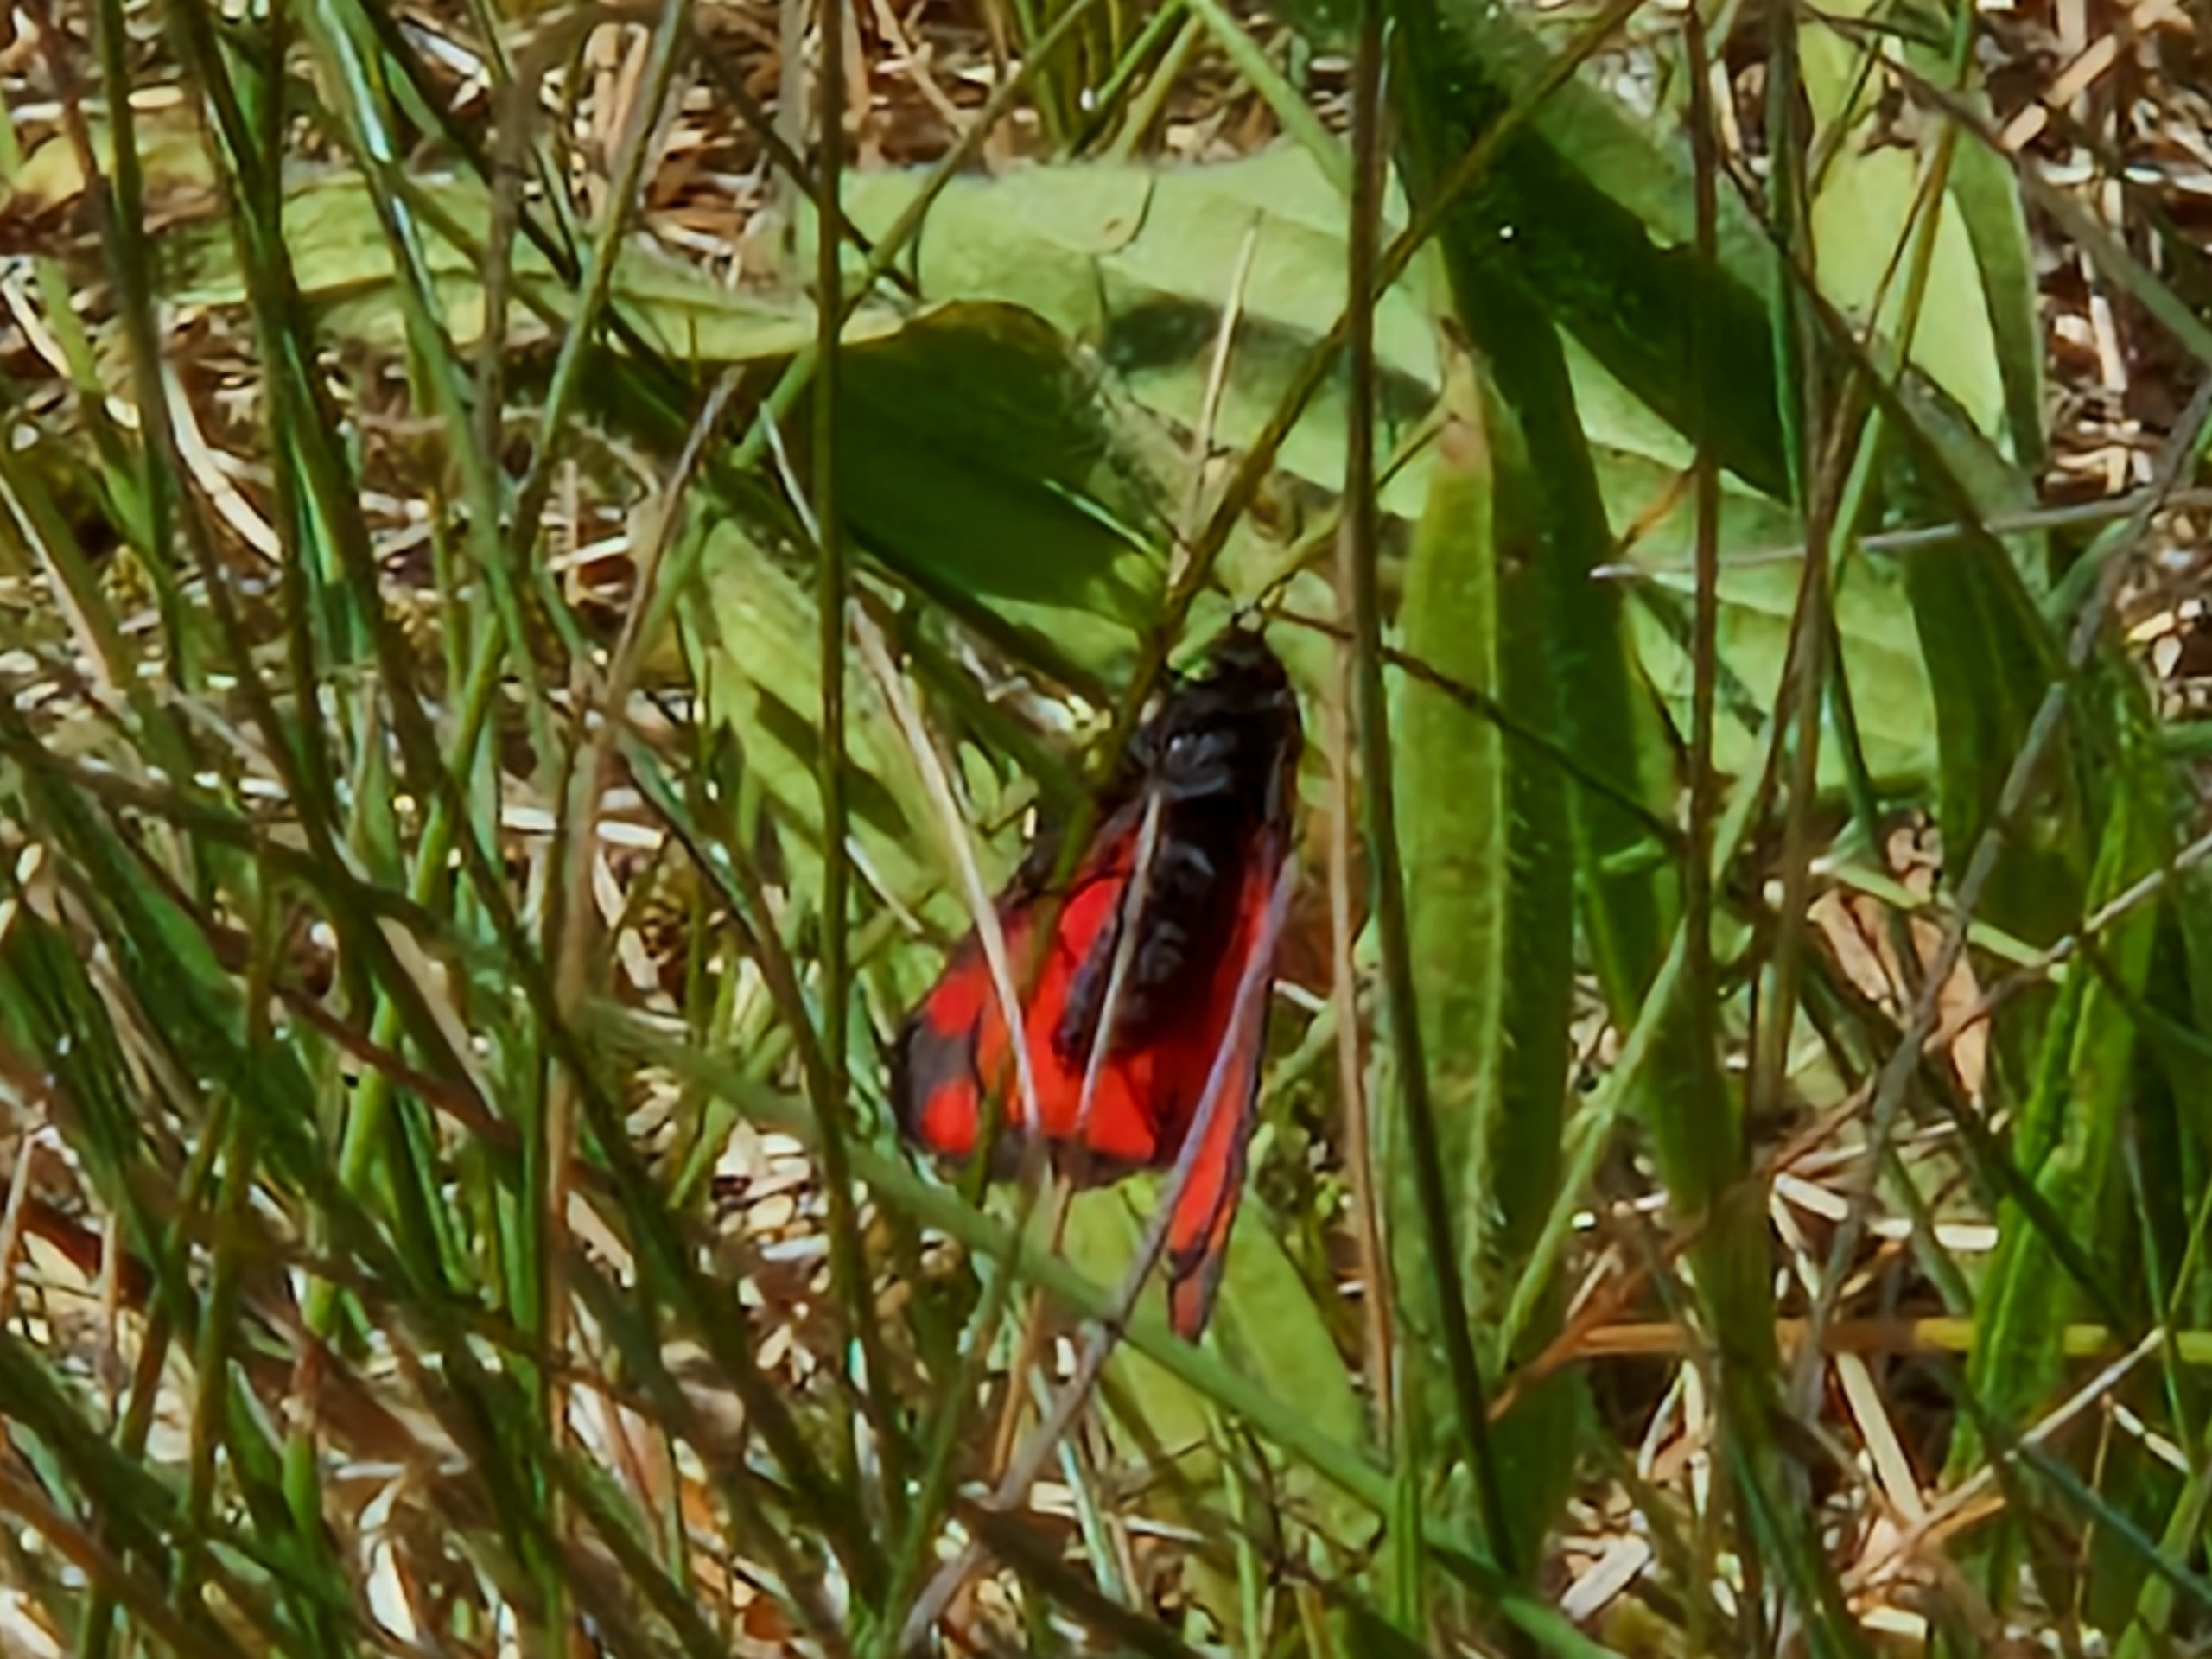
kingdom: Animalia
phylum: Arthropoda
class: Insecta
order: Lepidoptera
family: Erebidae
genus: Tyria
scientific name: Tyria jacobaeae
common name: Blodplet
